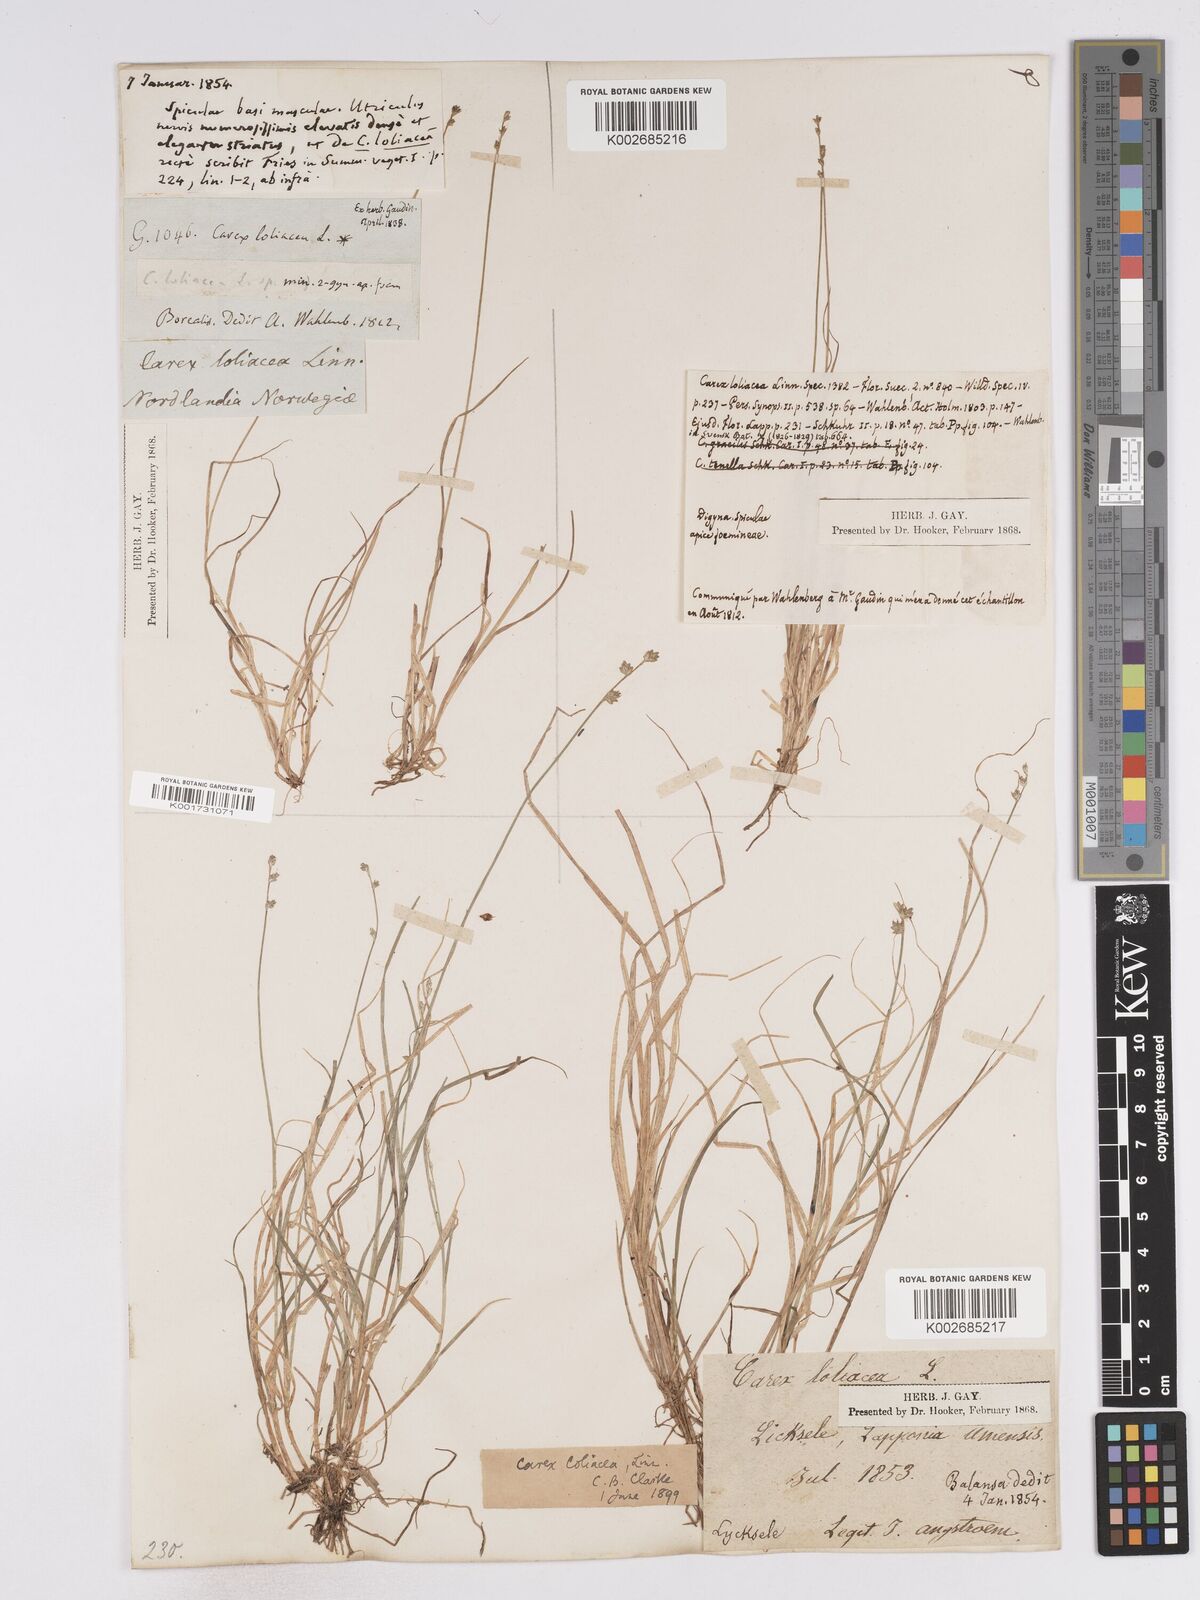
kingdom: Plantae
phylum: Tracheophyta
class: Liliopsida
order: Poales
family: Cyperaceae
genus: Carex
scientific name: Carex loliacea
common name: Ryegrass sedge
